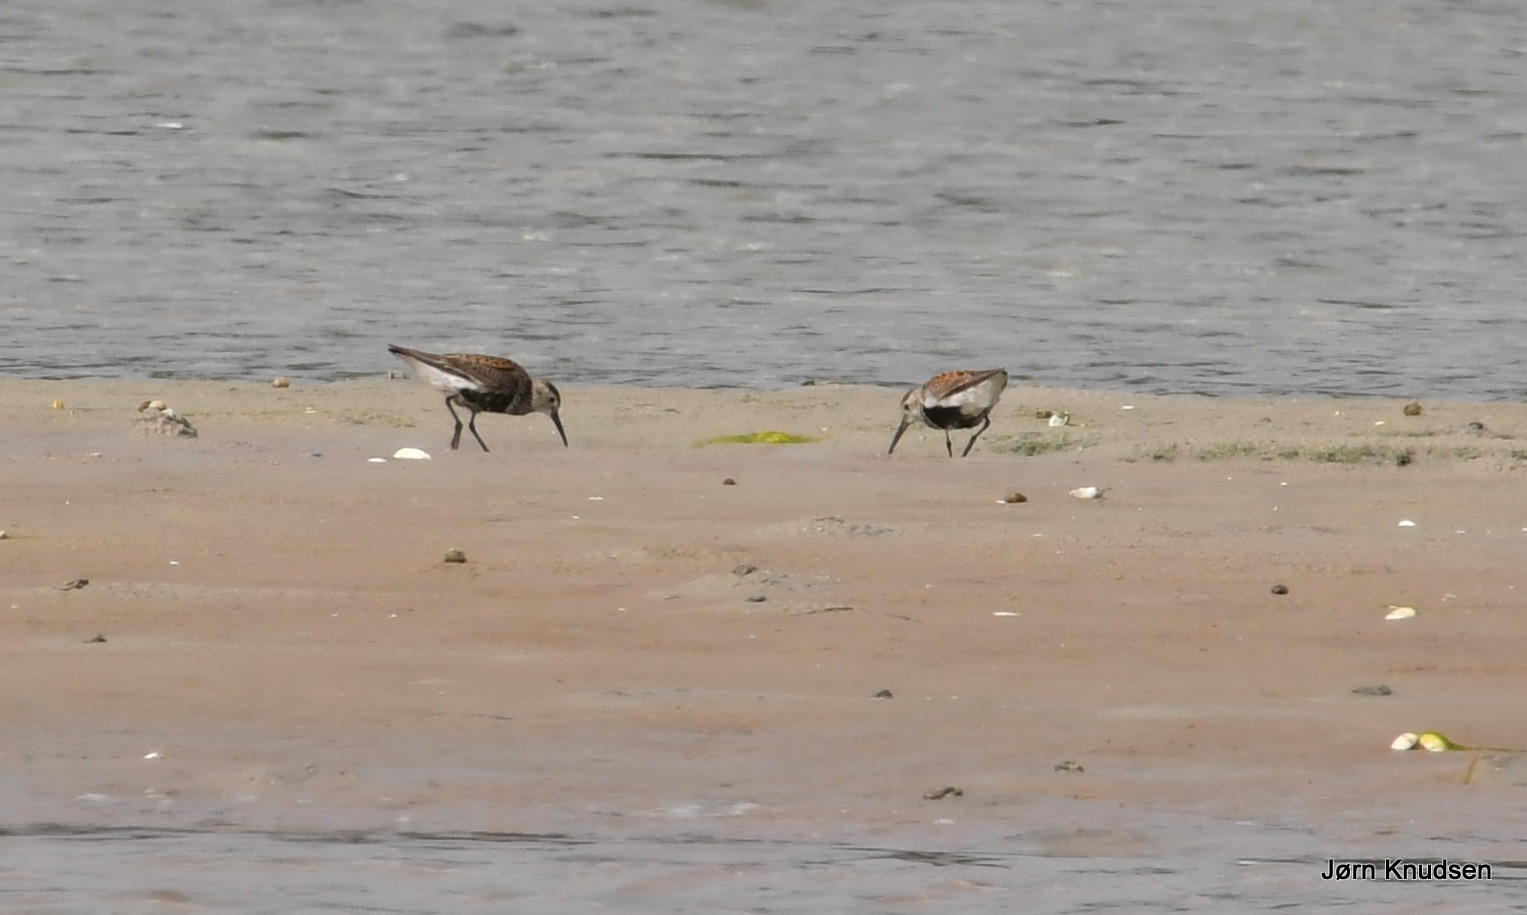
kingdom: Animalia
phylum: Chordata
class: Aves
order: Charadriiformes
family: Scolopacidae
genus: Calidris
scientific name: Calidris alpina
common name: Almindelig ryle
